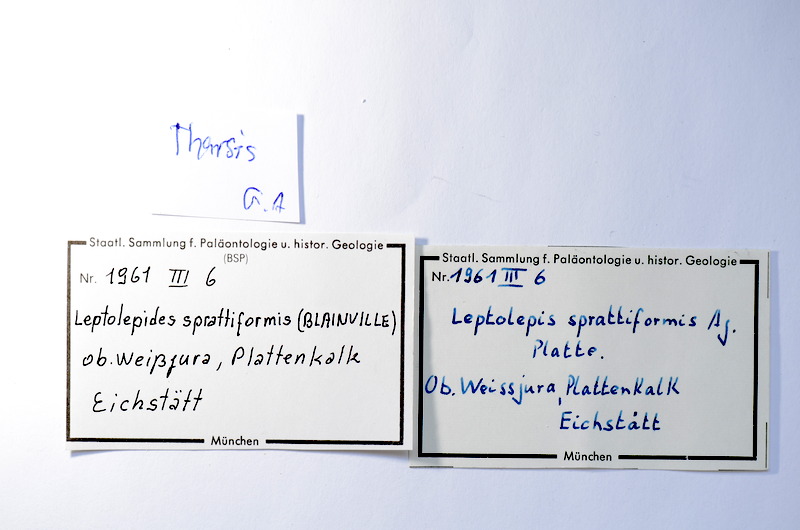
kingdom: Animalia
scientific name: Animalia
